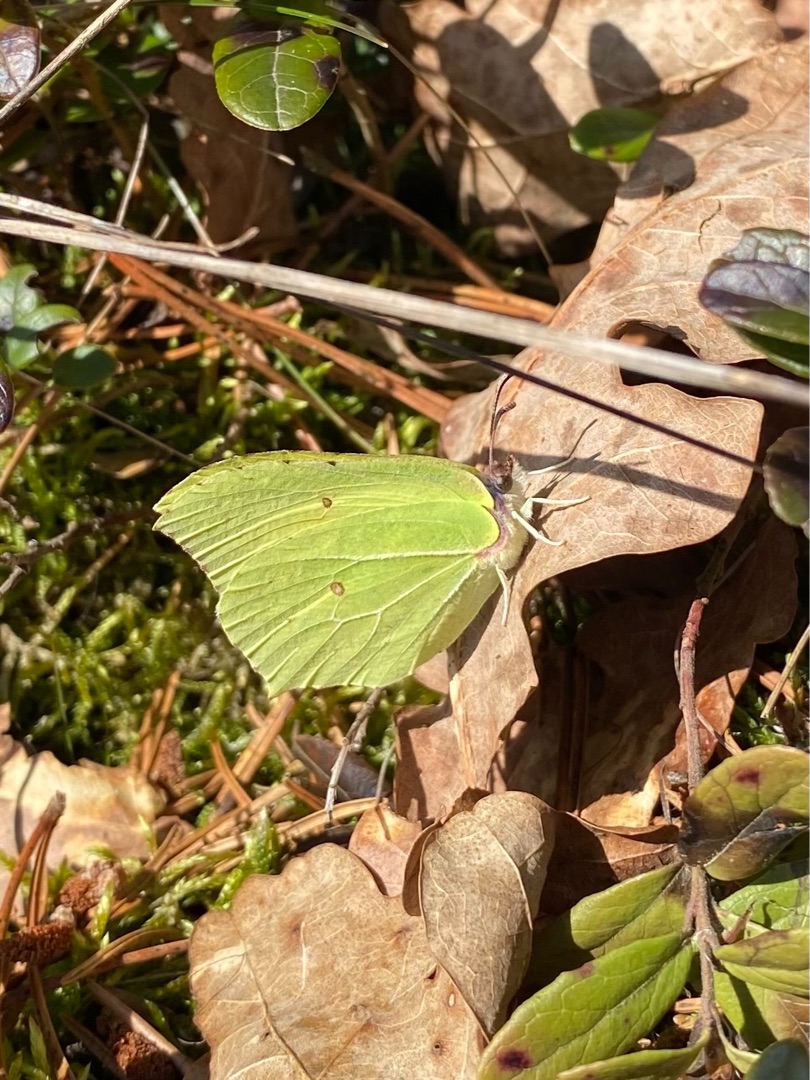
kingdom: Animalia
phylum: Arthropoda
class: Insecta
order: Lepidoptera
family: Pieridae
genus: Gonepteryx
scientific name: Gonepteryx rhamni
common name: Citronsommerfugl
